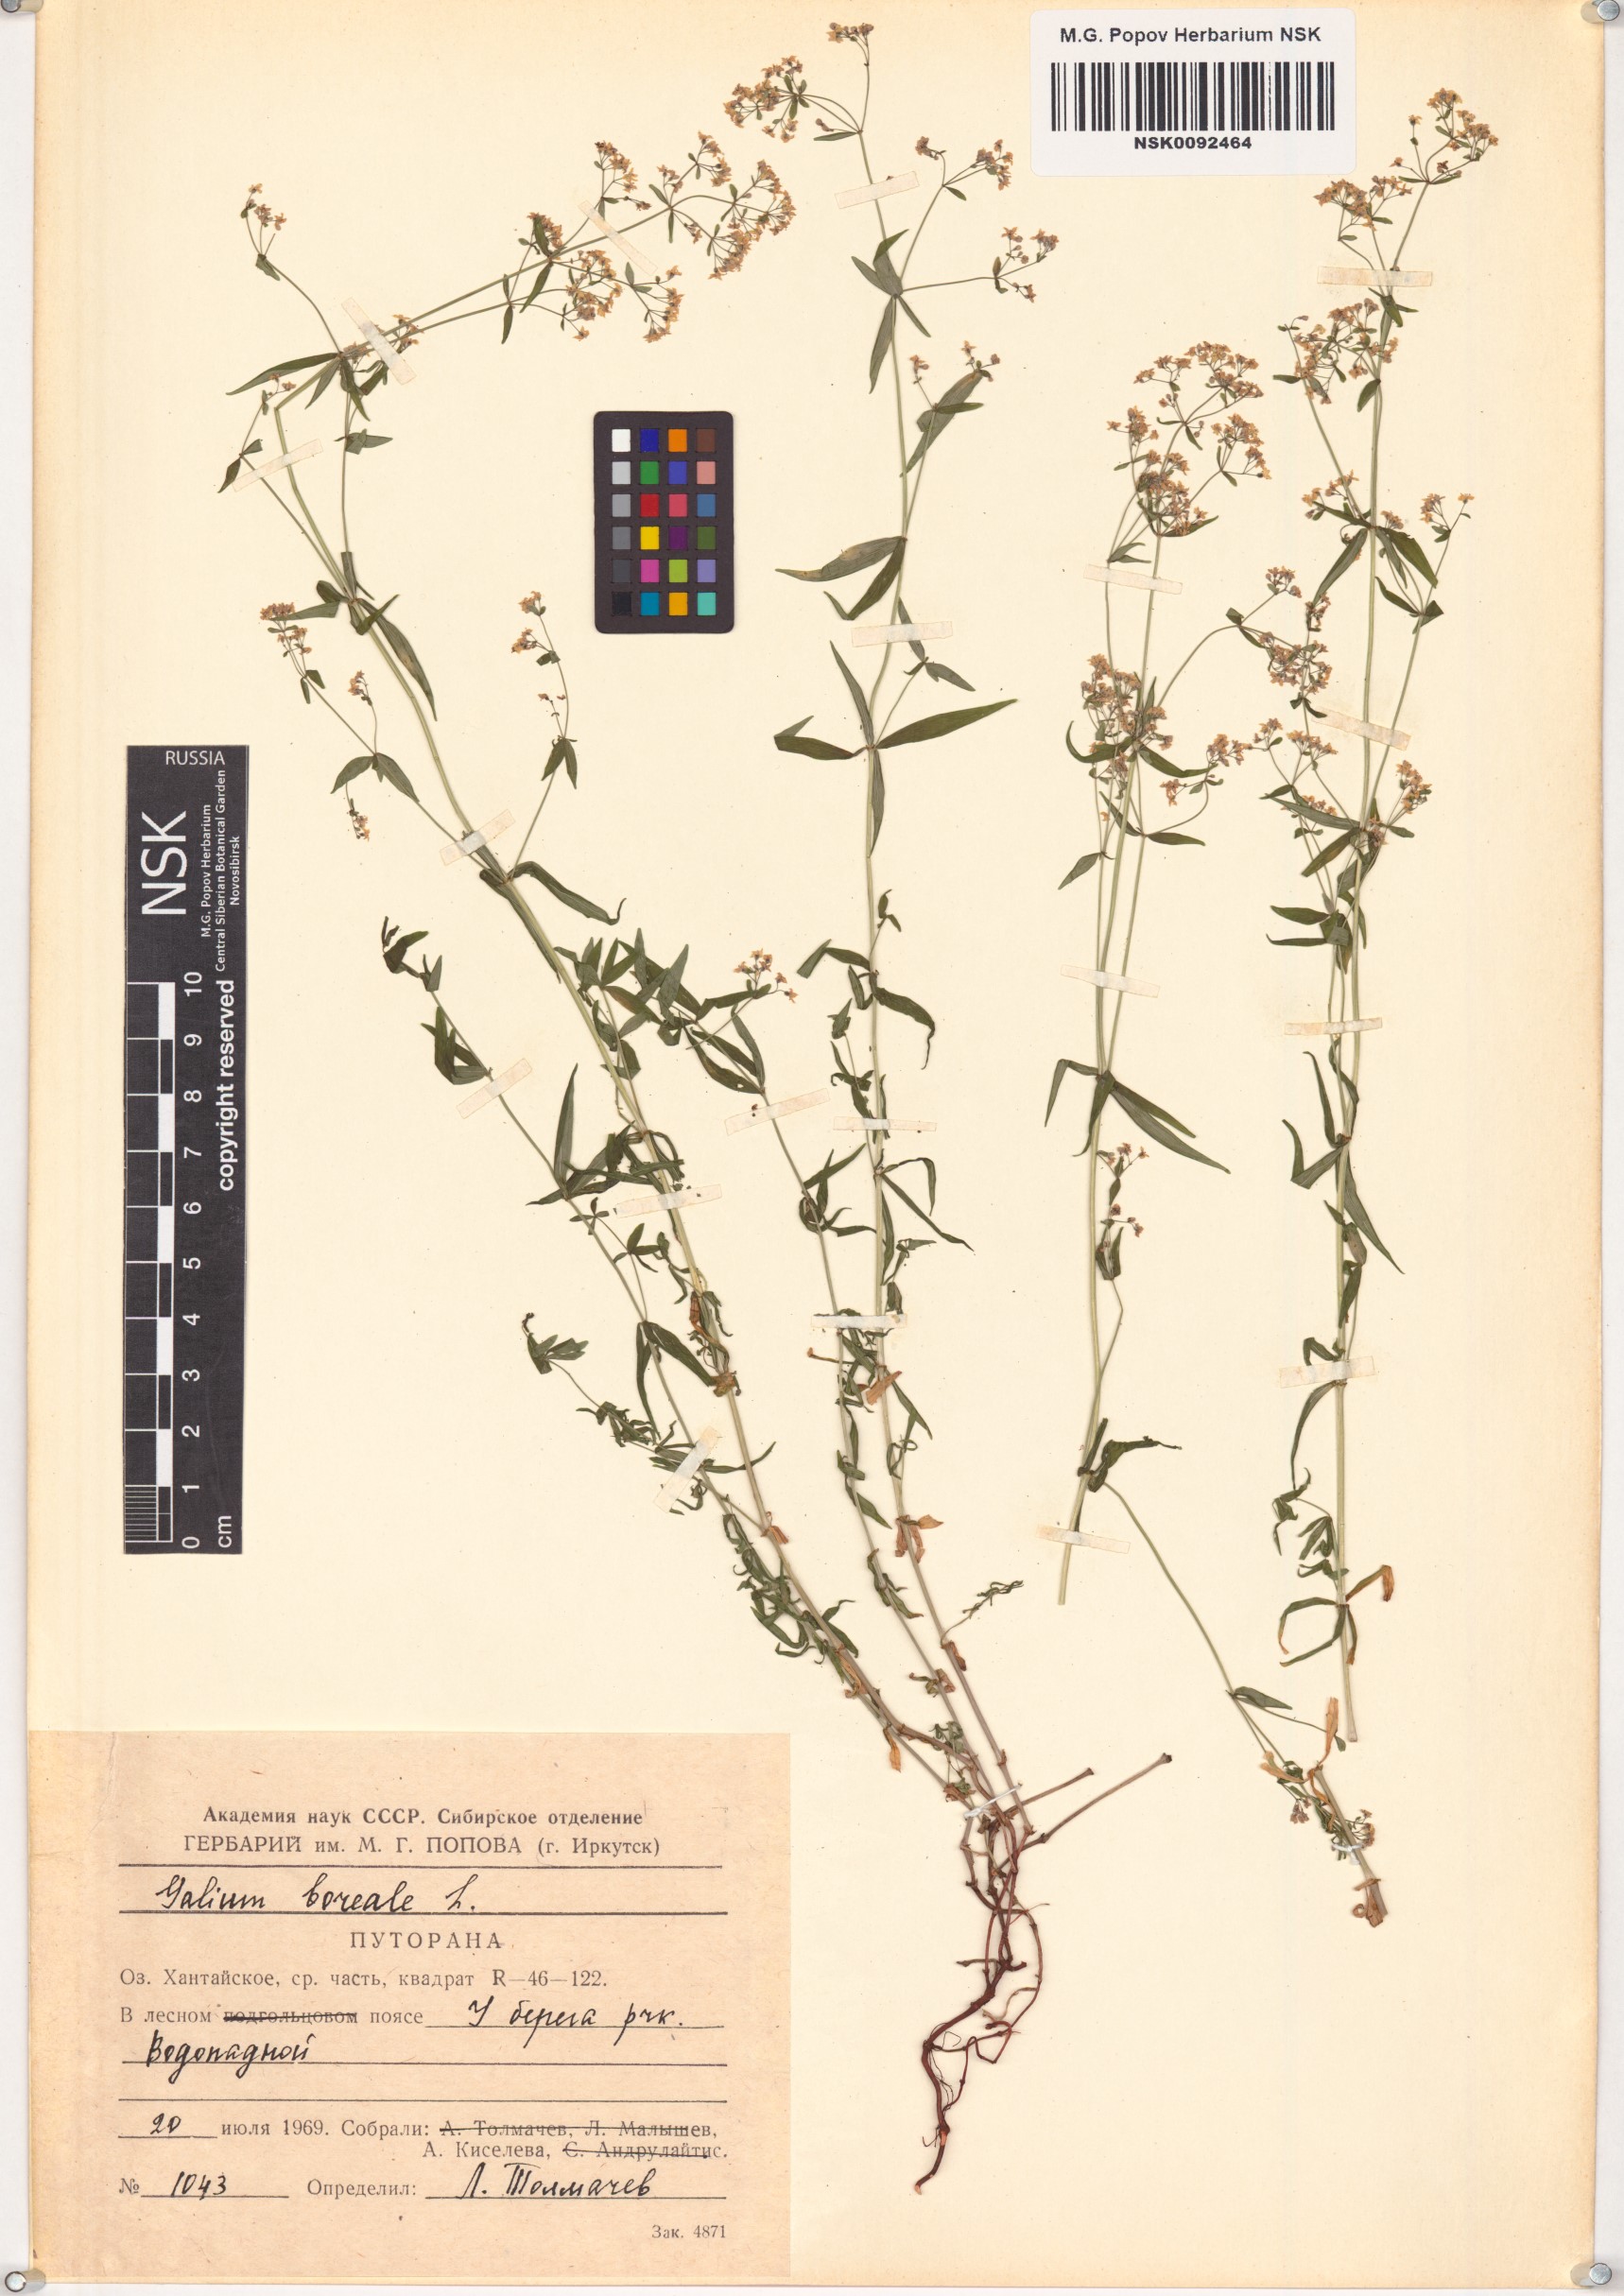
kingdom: Plantae
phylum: Tracheophyta
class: Magnoliopsida
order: Gentianales
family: Rubiaceae
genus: Galium
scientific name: Galium boreale
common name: Northern bedstraw
